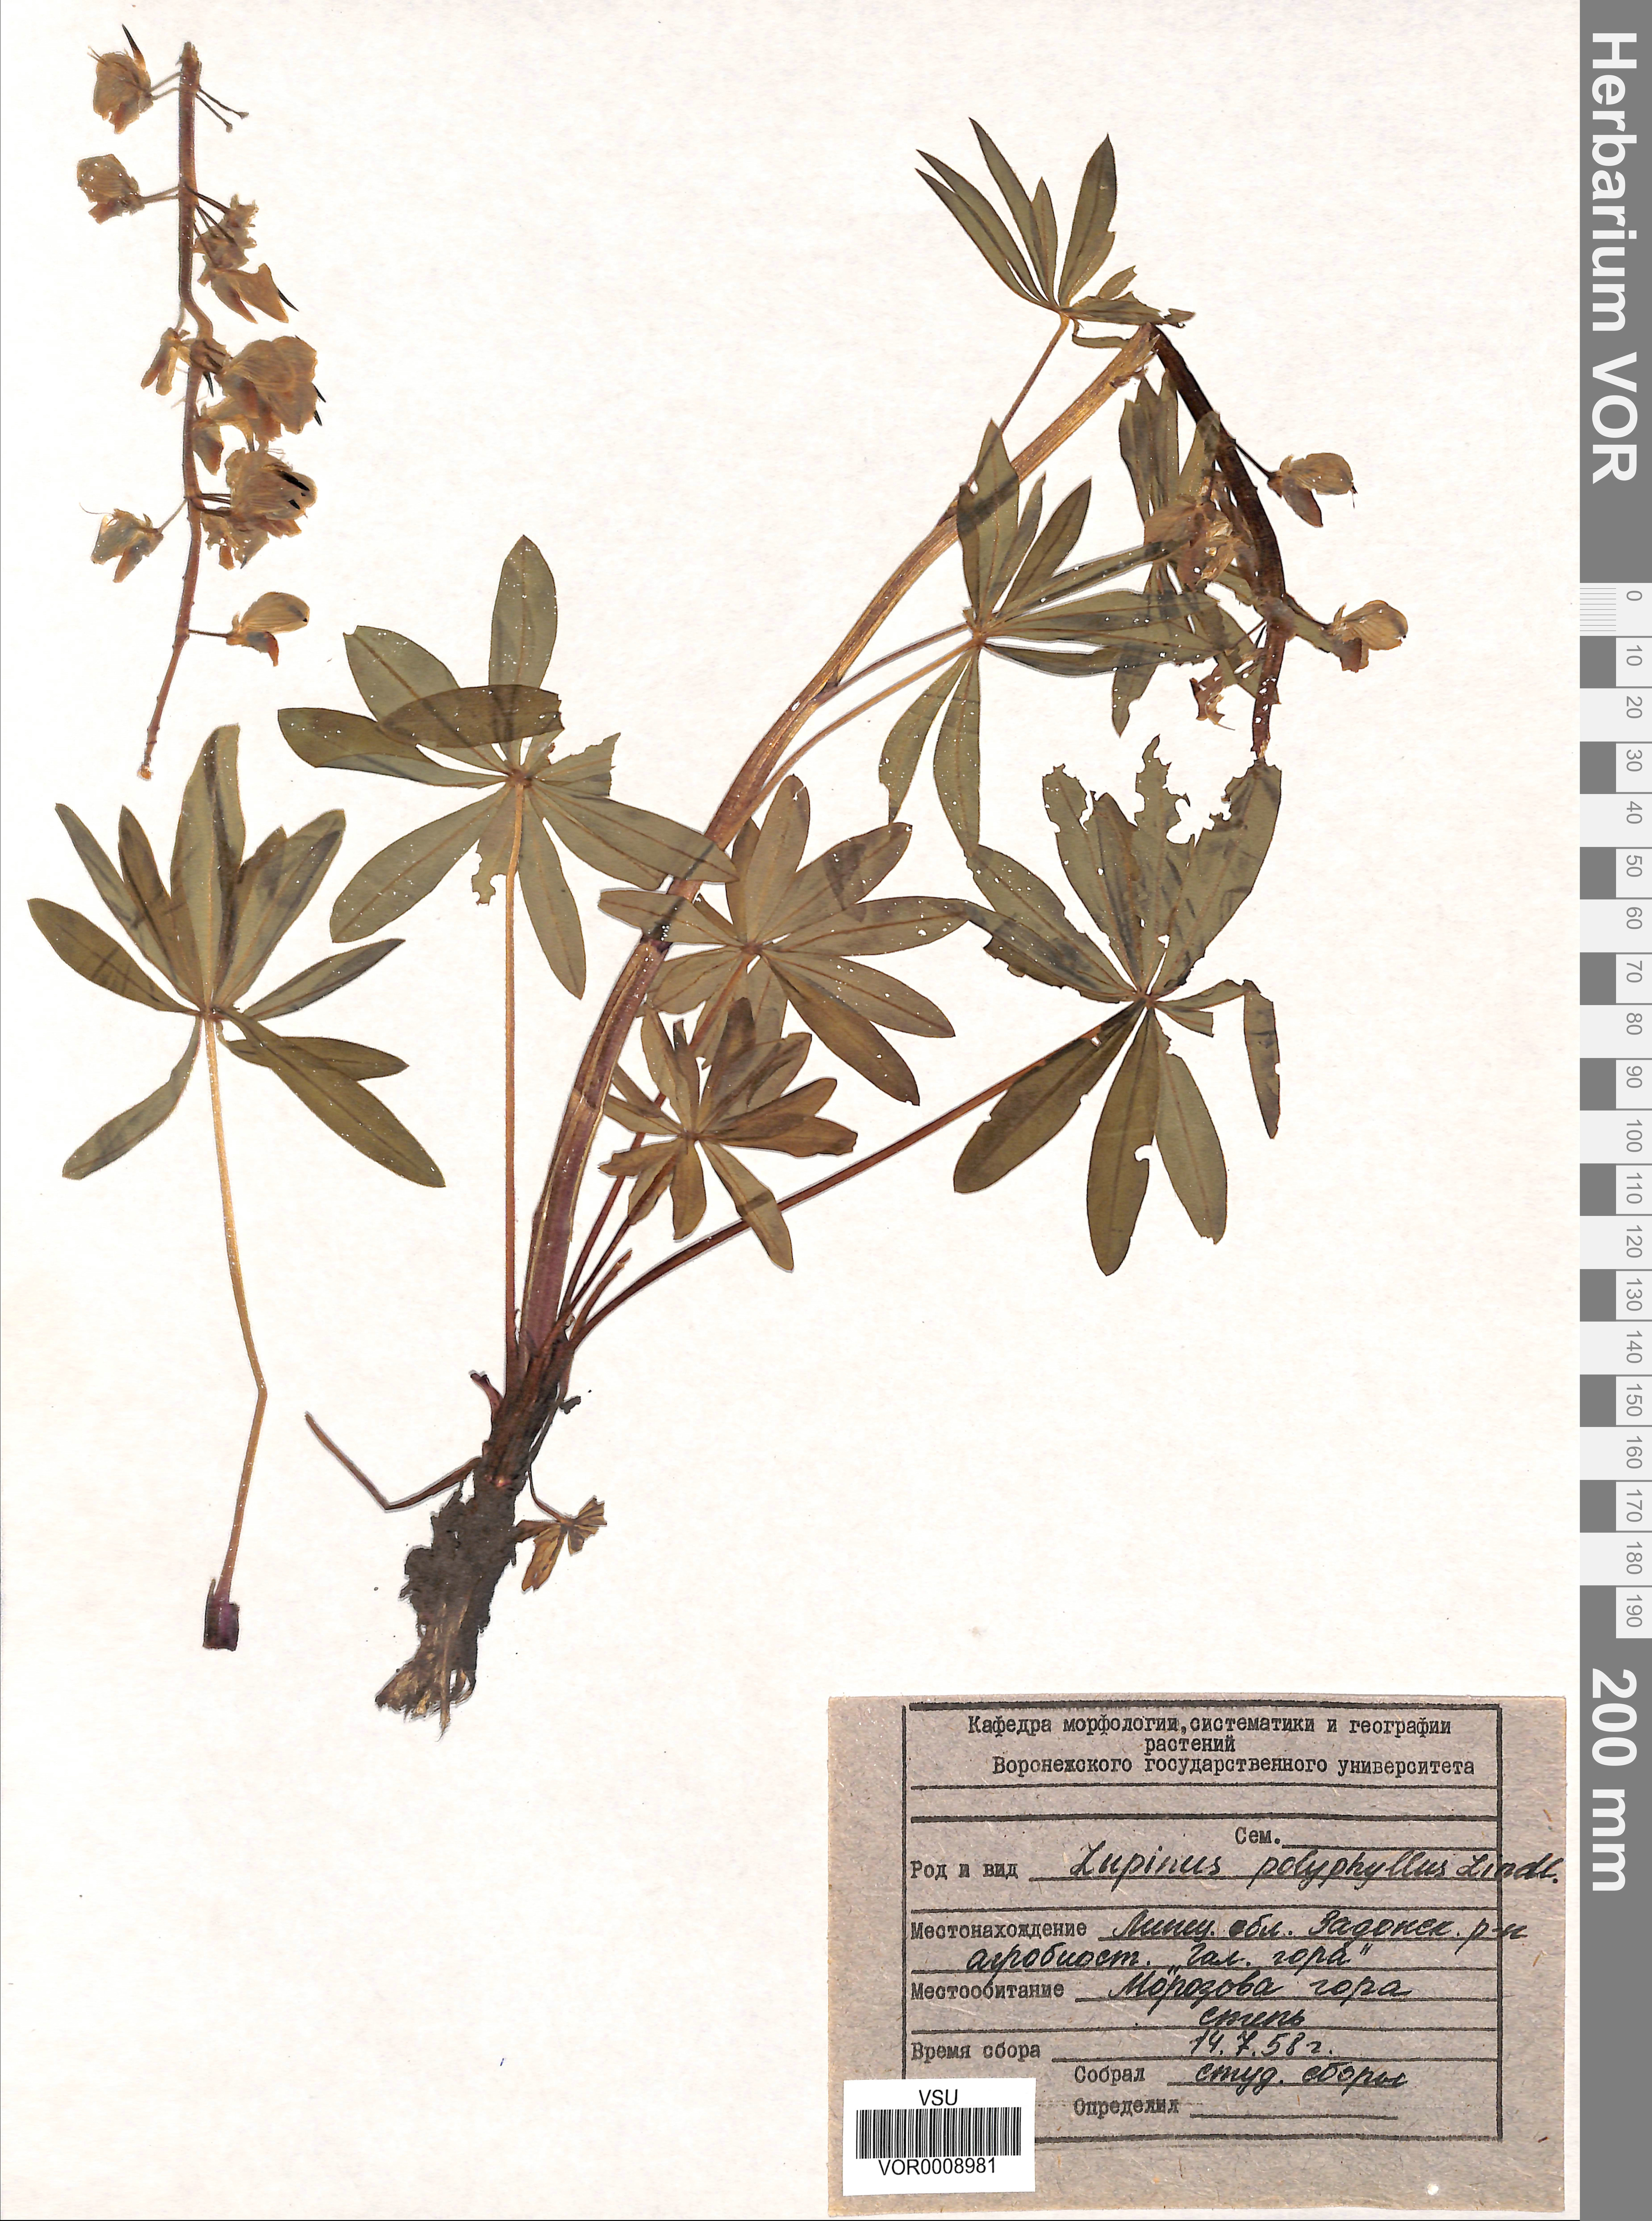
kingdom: Plantae
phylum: Tracheophyta
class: Magnoliopsida
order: Fabales
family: Fabaceae
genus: Lupinus
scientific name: Lupinus polyphyllus
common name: Garden lupin
